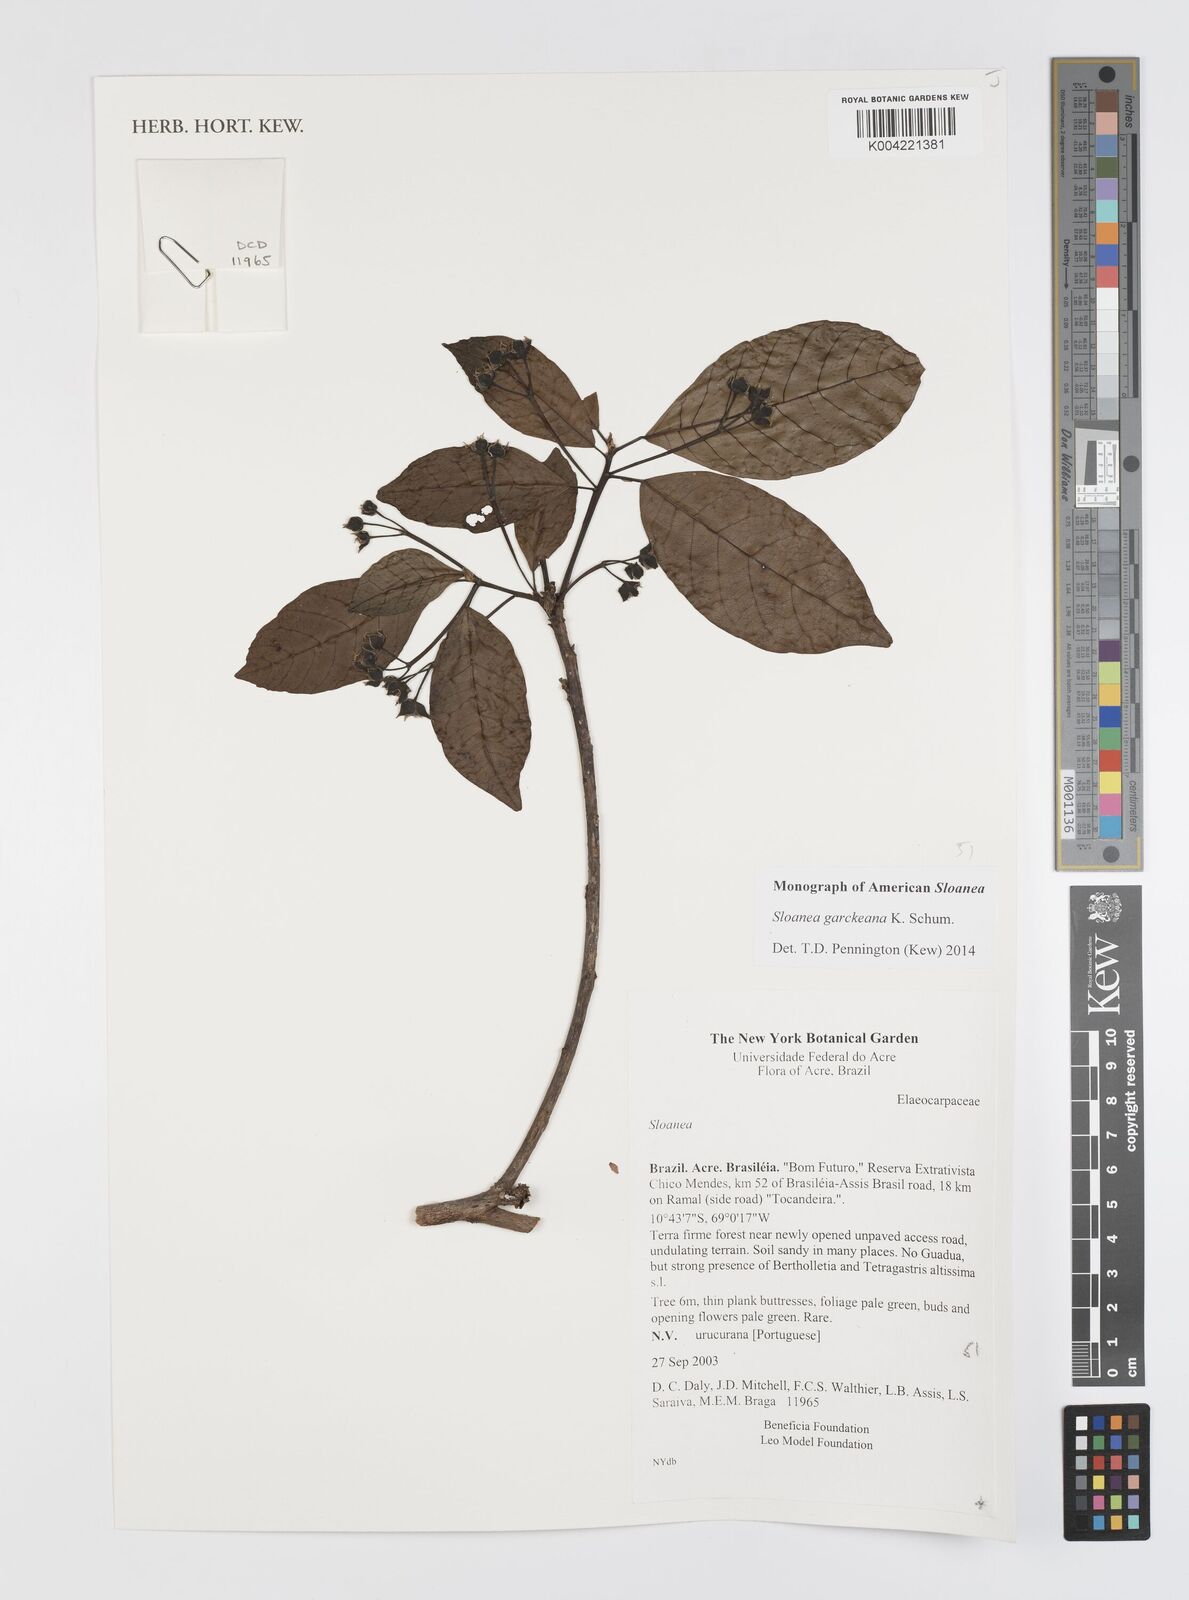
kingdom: Plantae
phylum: Tracheophyta
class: Magnoliopsida
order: Oxalidales
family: Elaeocarpaceae
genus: Sloanea
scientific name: Sloanea garckeana
